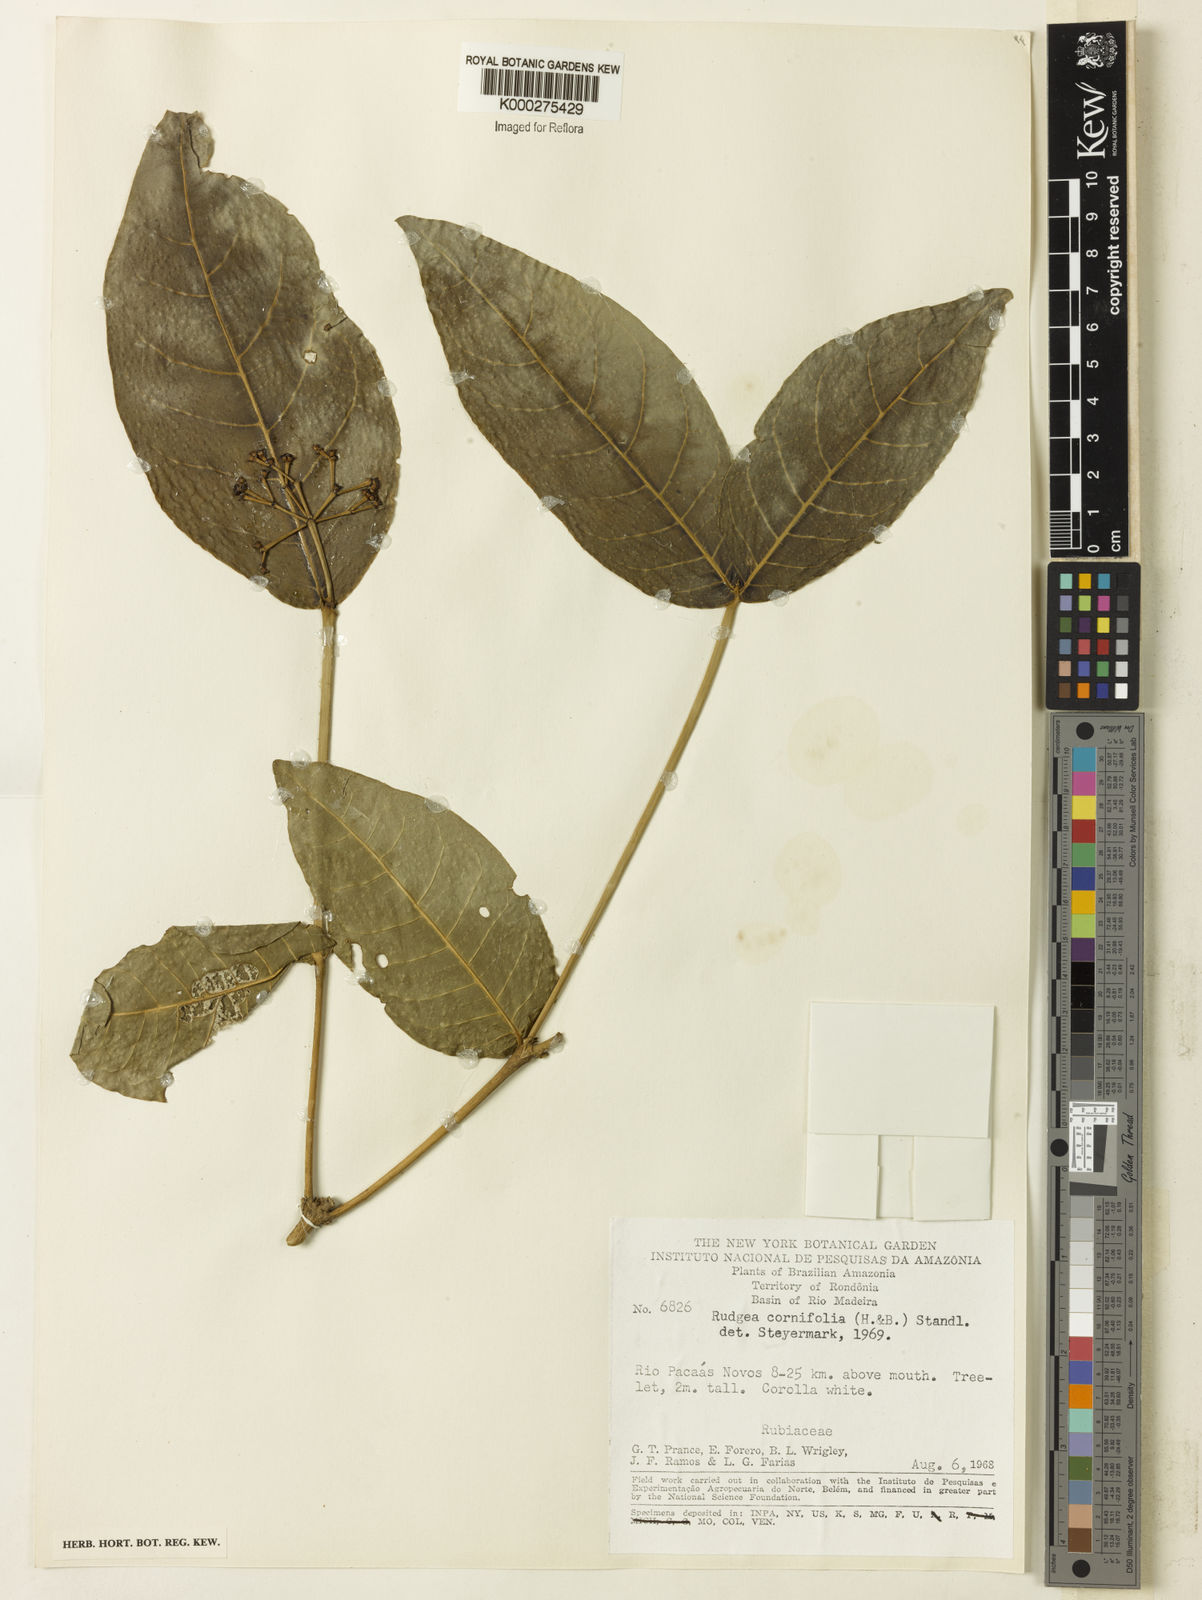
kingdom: Plantae
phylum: Tracheophyta
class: Magnoliopsida
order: Gentianales
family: Rubiaceae
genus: Rudgea
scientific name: Rudgea cornifolia
